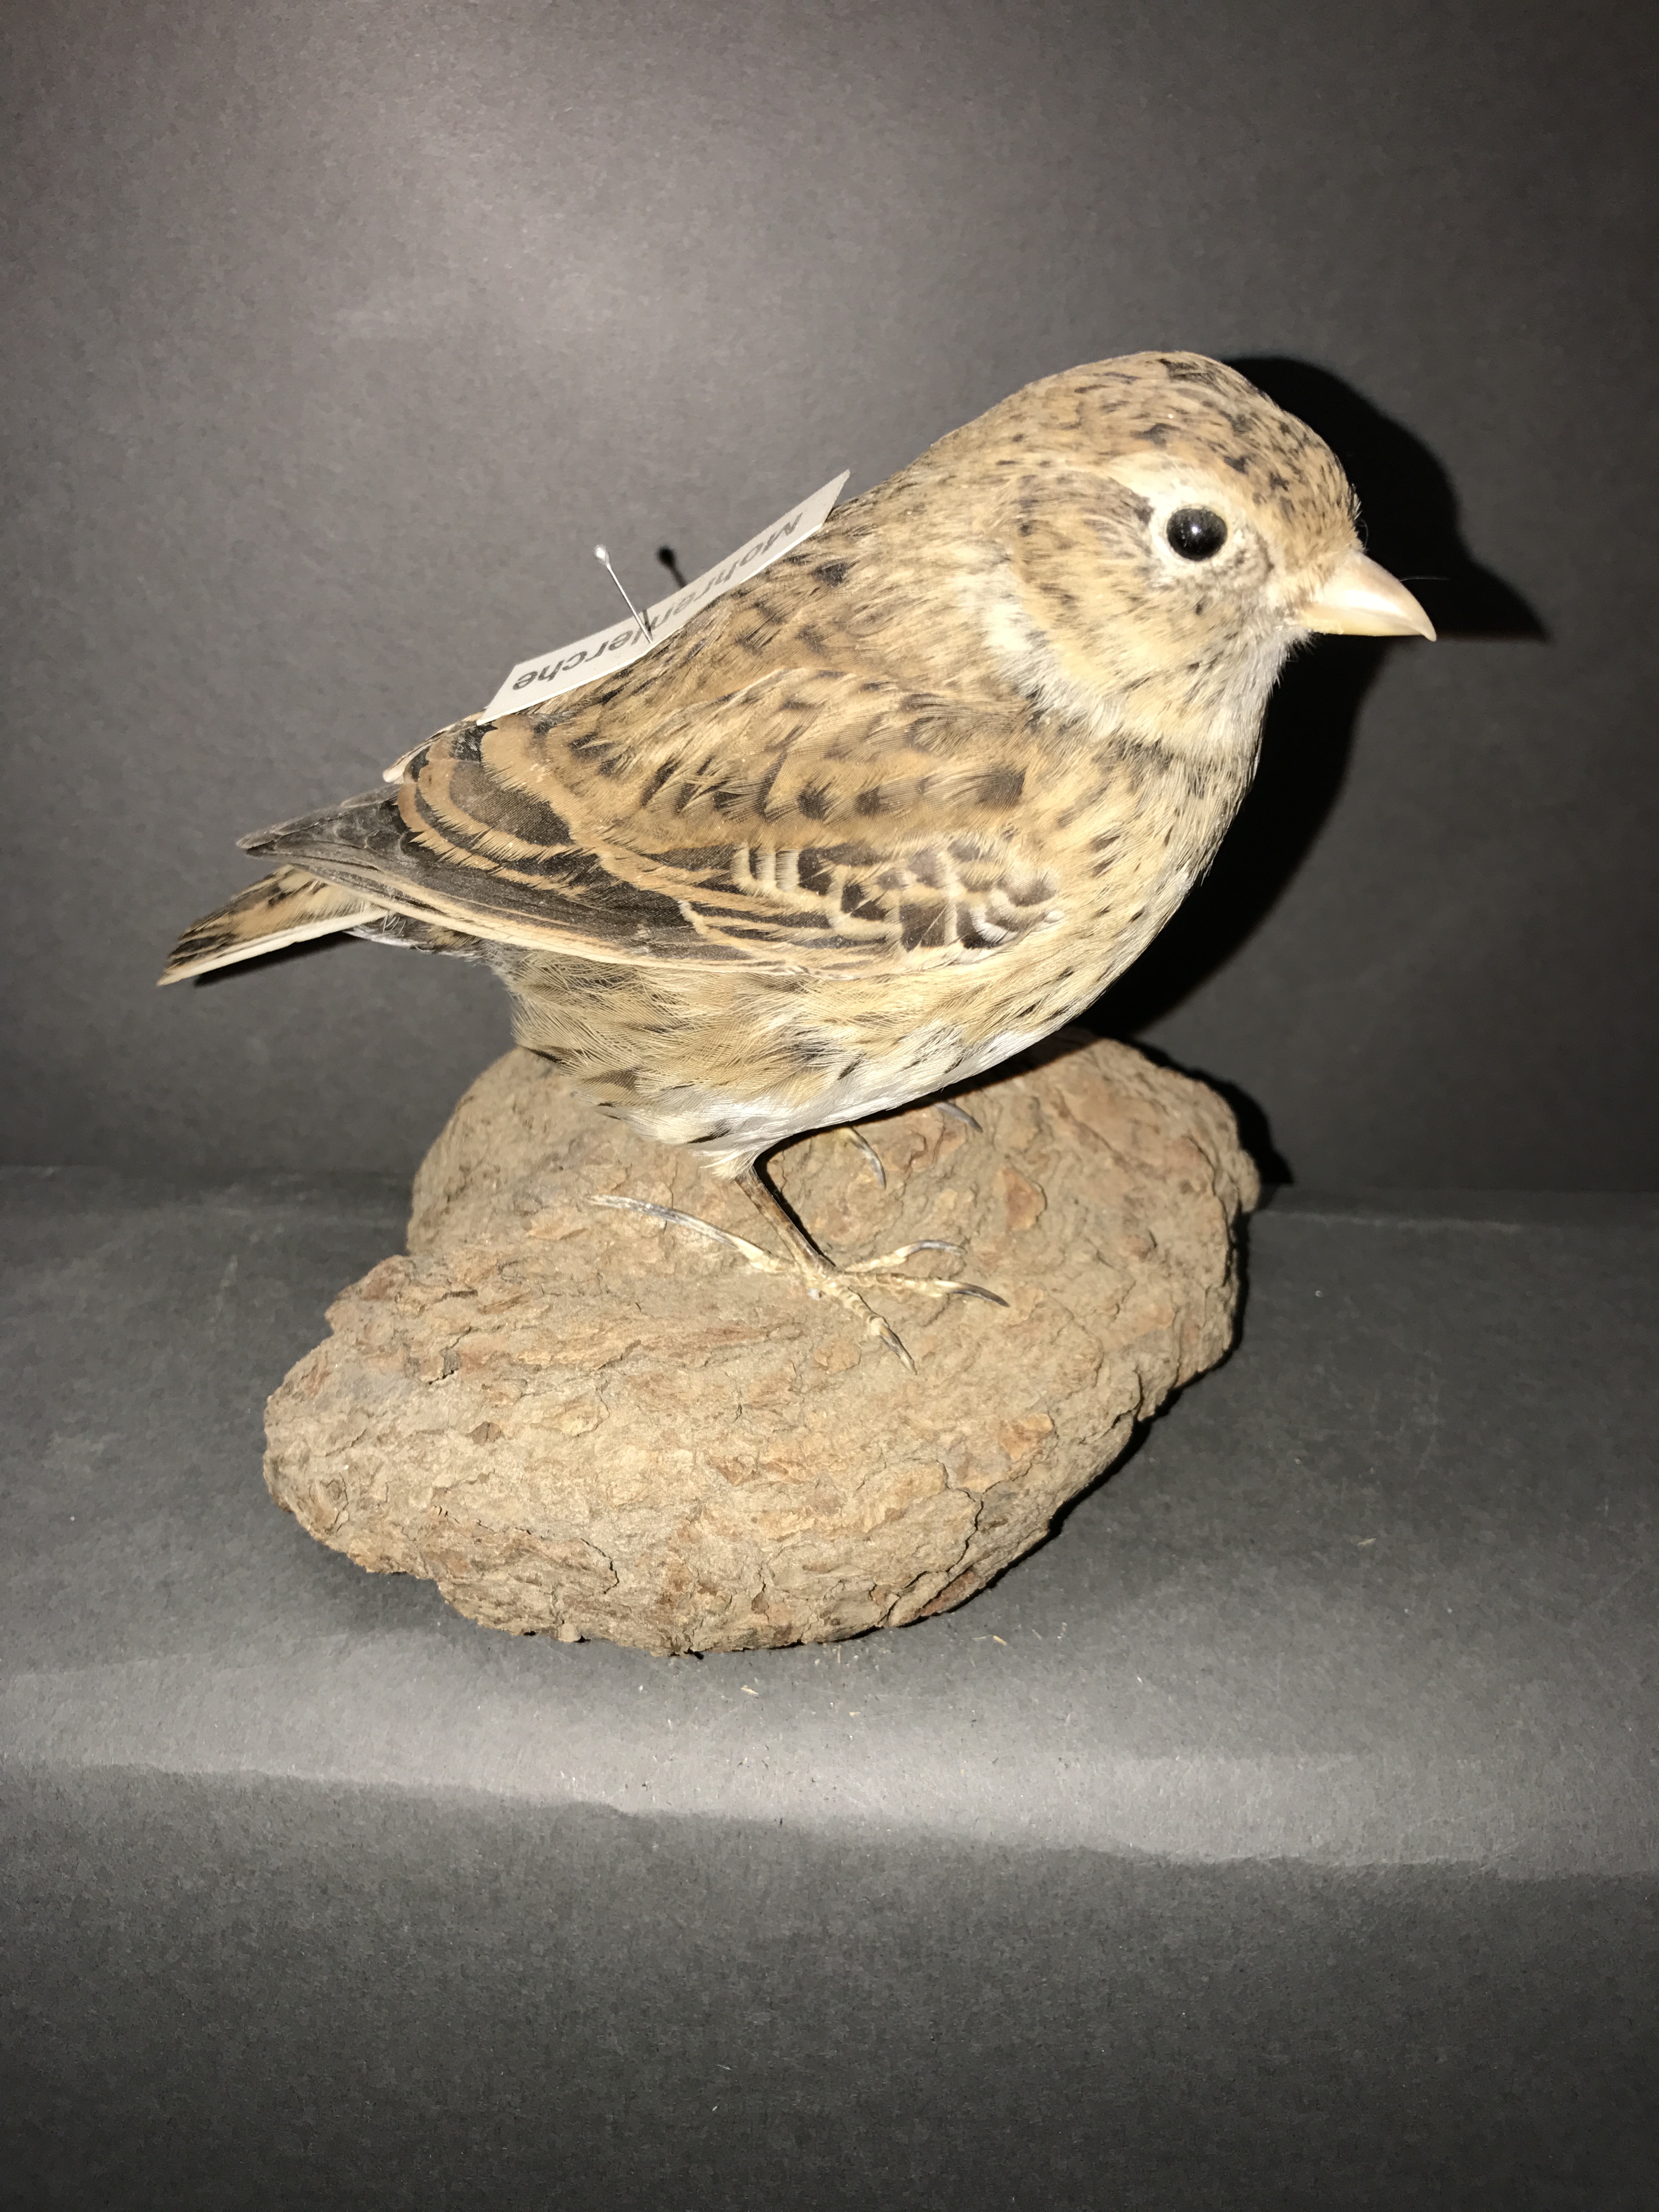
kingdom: Animalia
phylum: Chordata
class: Aves
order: Passeriformes
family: Alaudidae
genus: Melanocorypha
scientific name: Melanocorypha yeltoniensis
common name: Black lark
